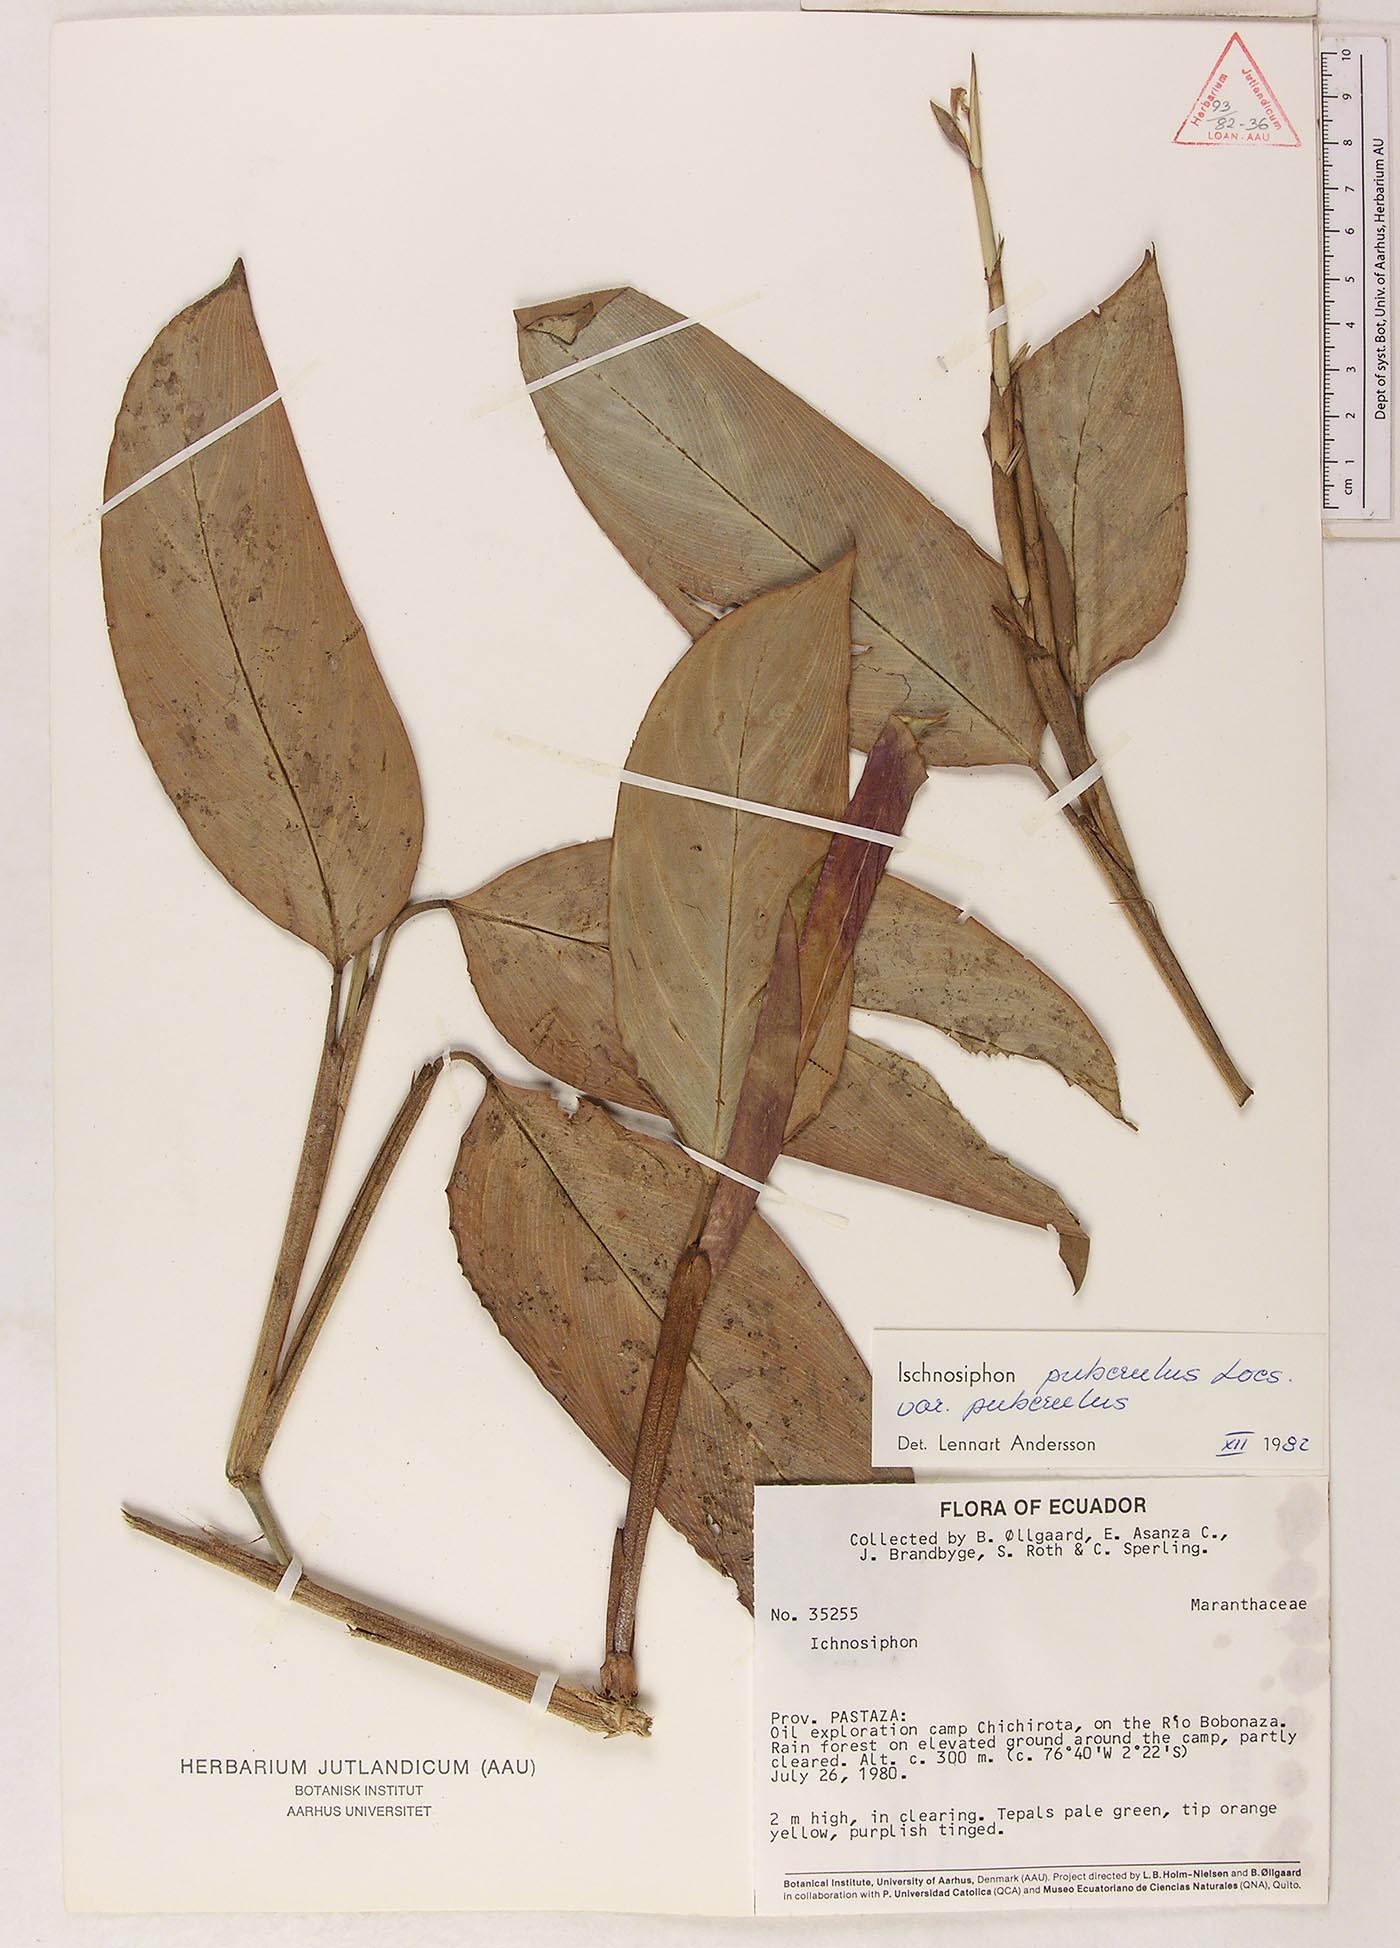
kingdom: Plantae
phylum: Tracheophyta
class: Liliopsida
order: Zingiberales
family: Marantaceae
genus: Ischnosiphon
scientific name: Ischnosiphon puberulus
